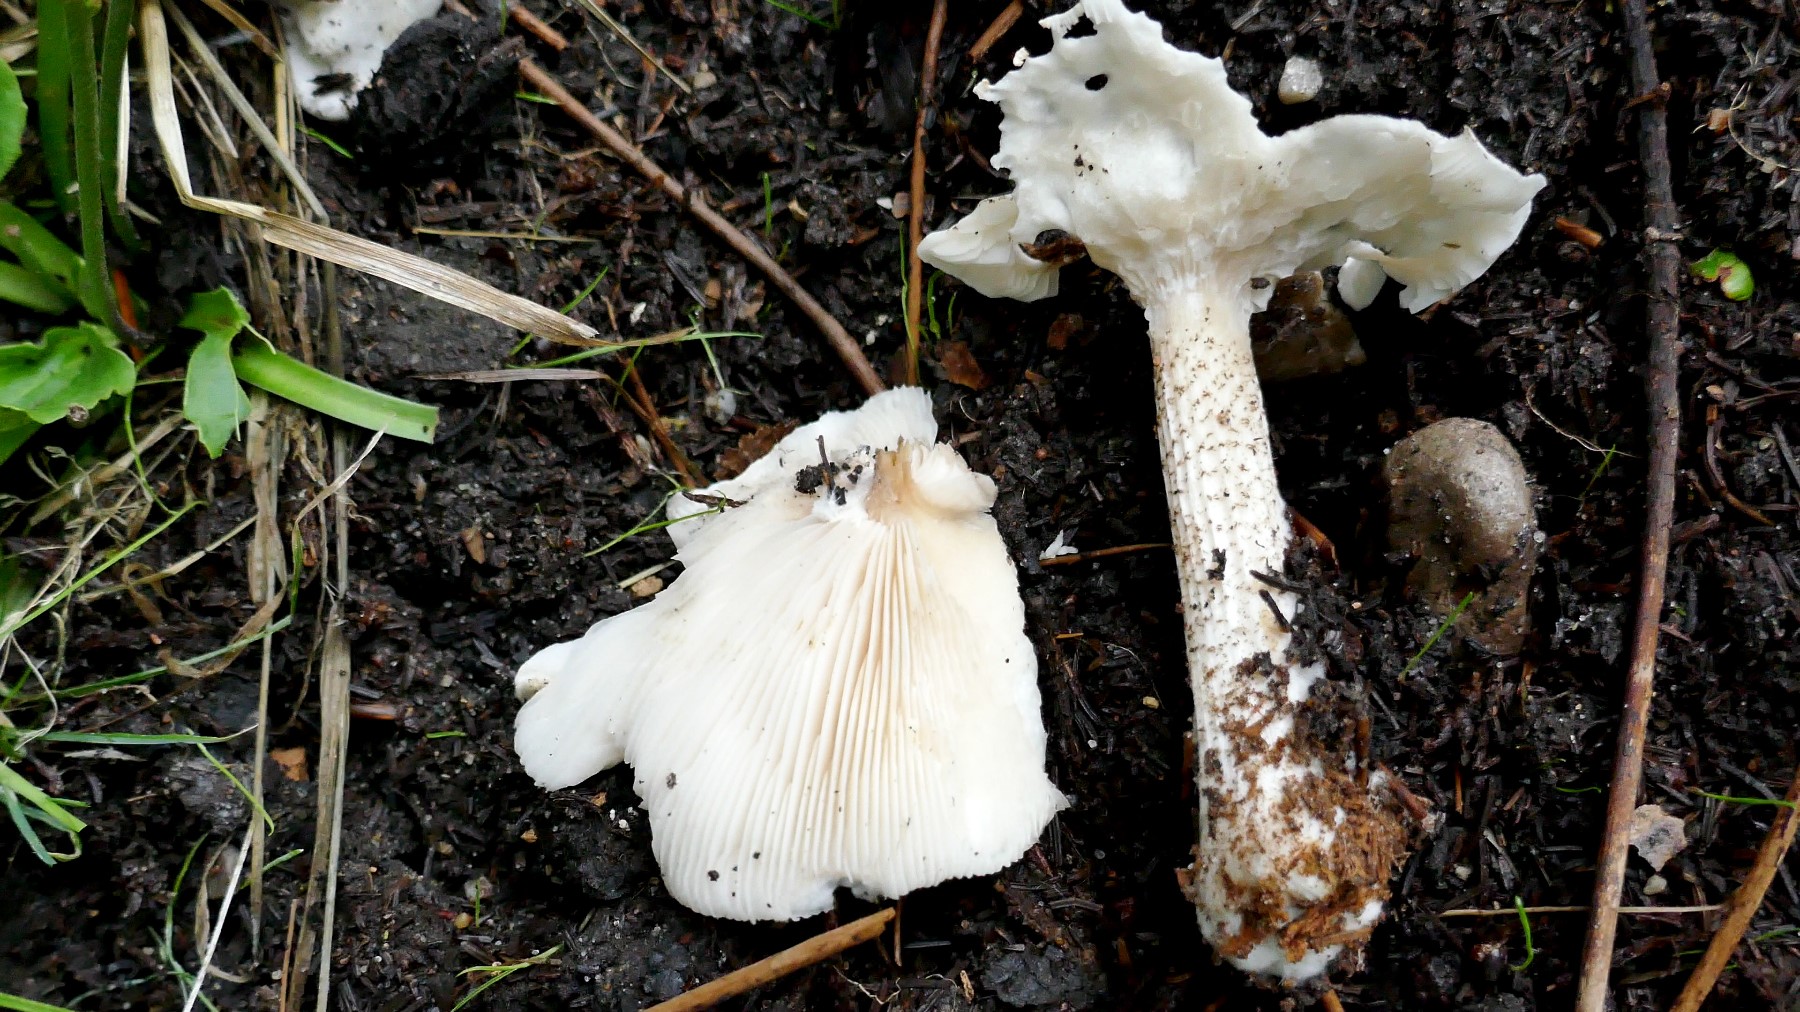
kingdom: Fungi
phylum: Basidiomycota
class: Agaricomycetes
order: Agaricales
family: Tricholomataceae
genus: Melanoleuca
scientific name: Melanoleuca verrucipes
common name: rufodet munkehat
